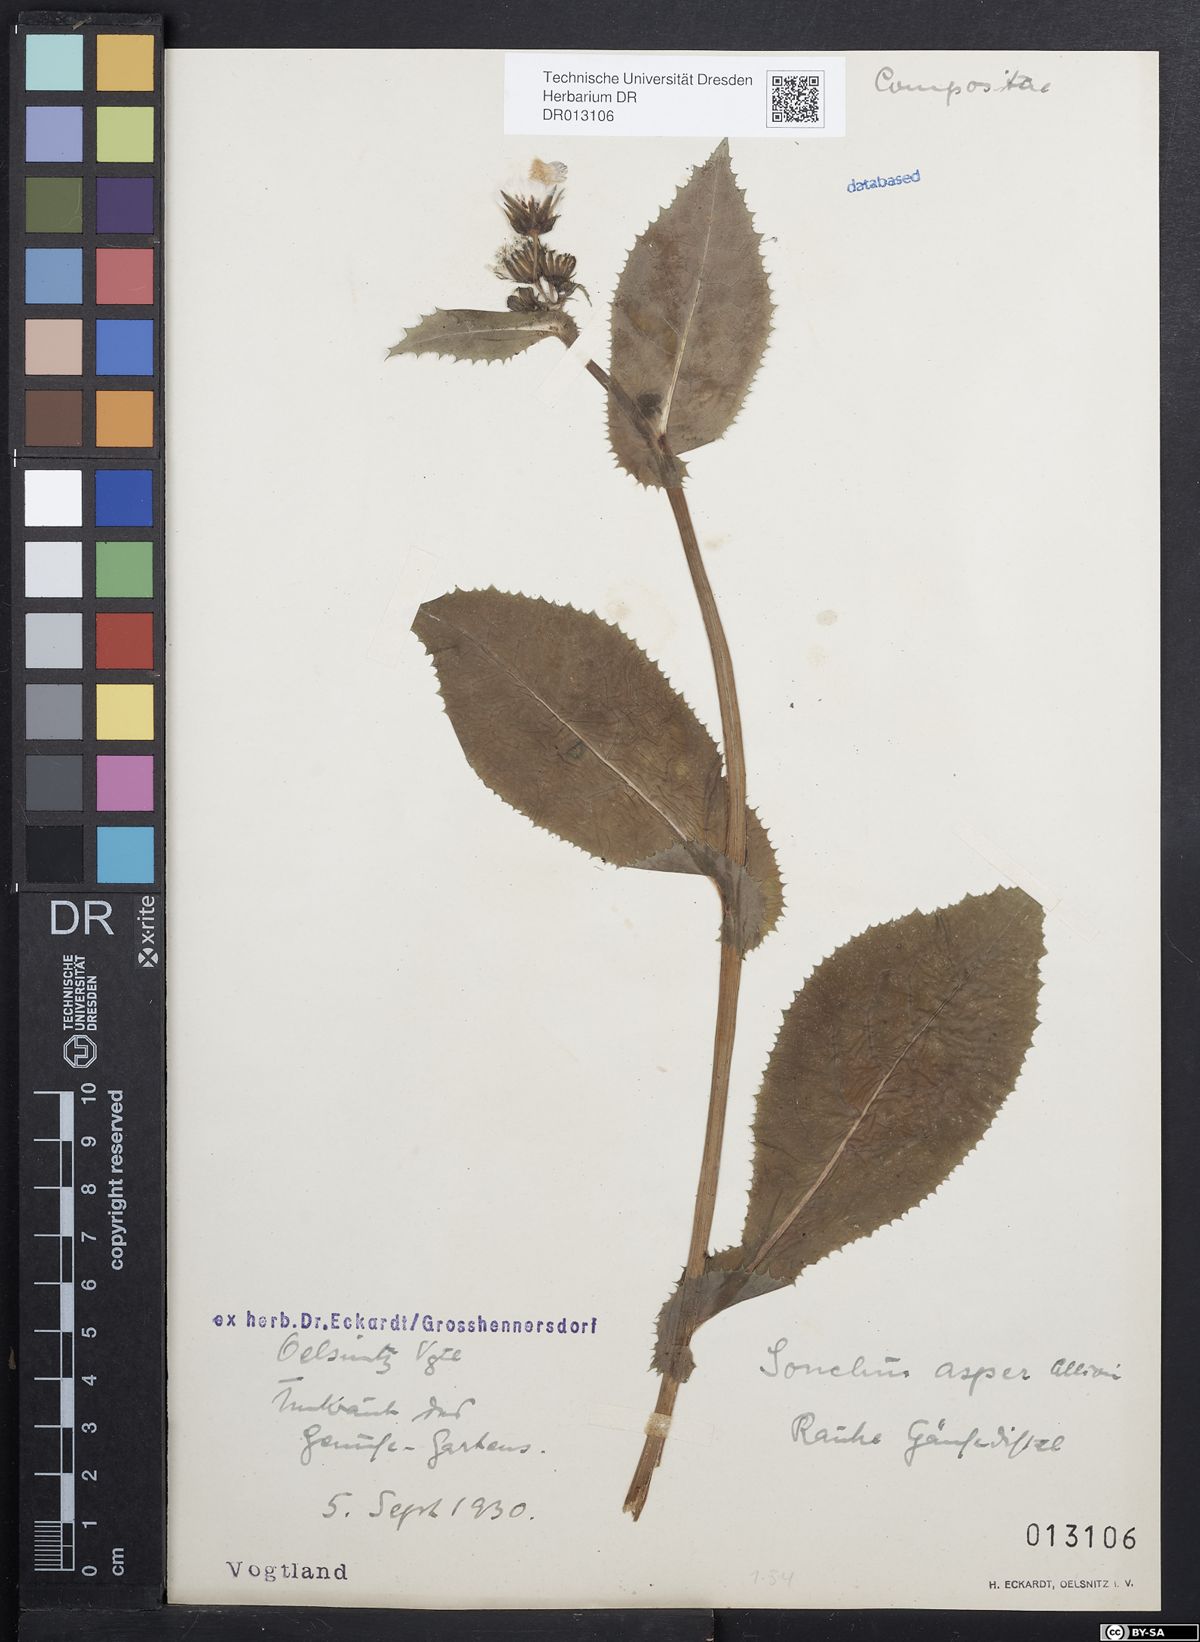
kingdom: Plantae
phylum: Tracheophyta
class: Magnoliopsida
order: Asterales
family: Asteraceae
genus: Sonchus
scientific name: Sonchus asper
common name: Prickly sow-thistle
